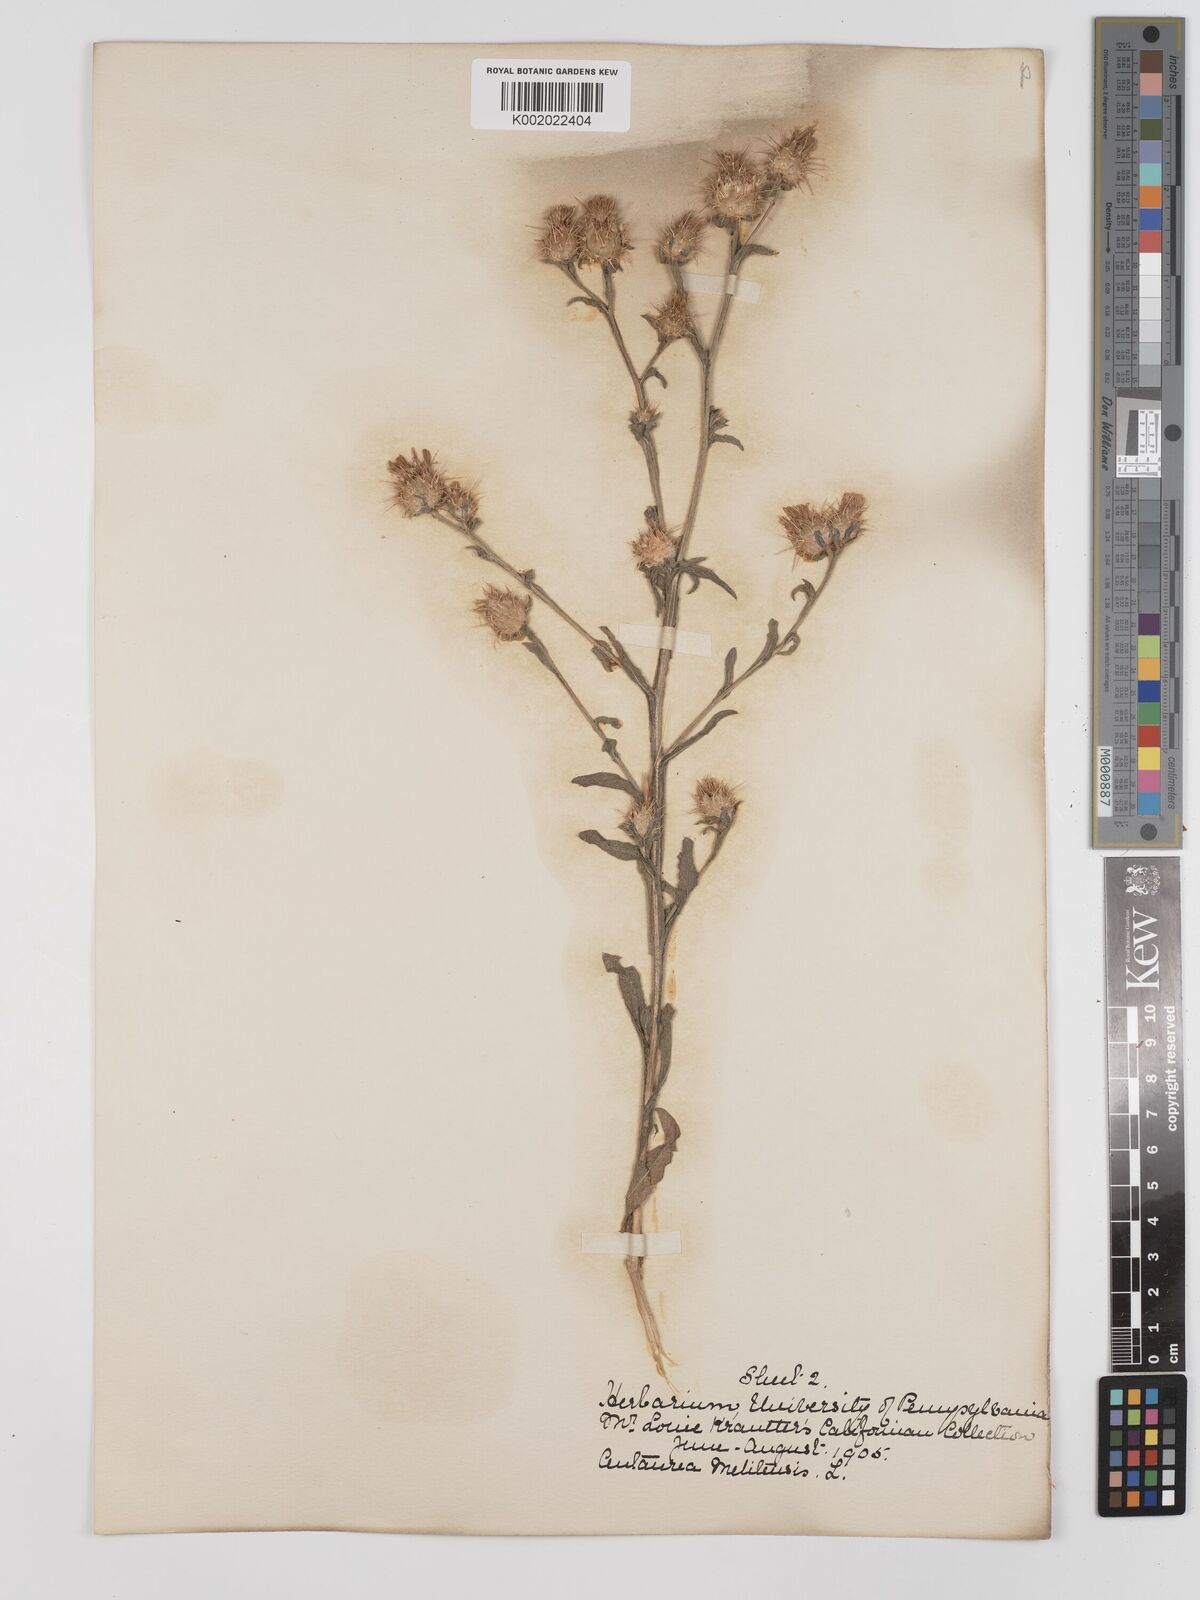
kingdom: Plantae
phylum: Tracheophyta
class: Magnoliopsida
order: Asterales
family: Asteraceae
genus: Centaurea
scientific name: Centaurea melitensis
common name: Maltese star-thistle
